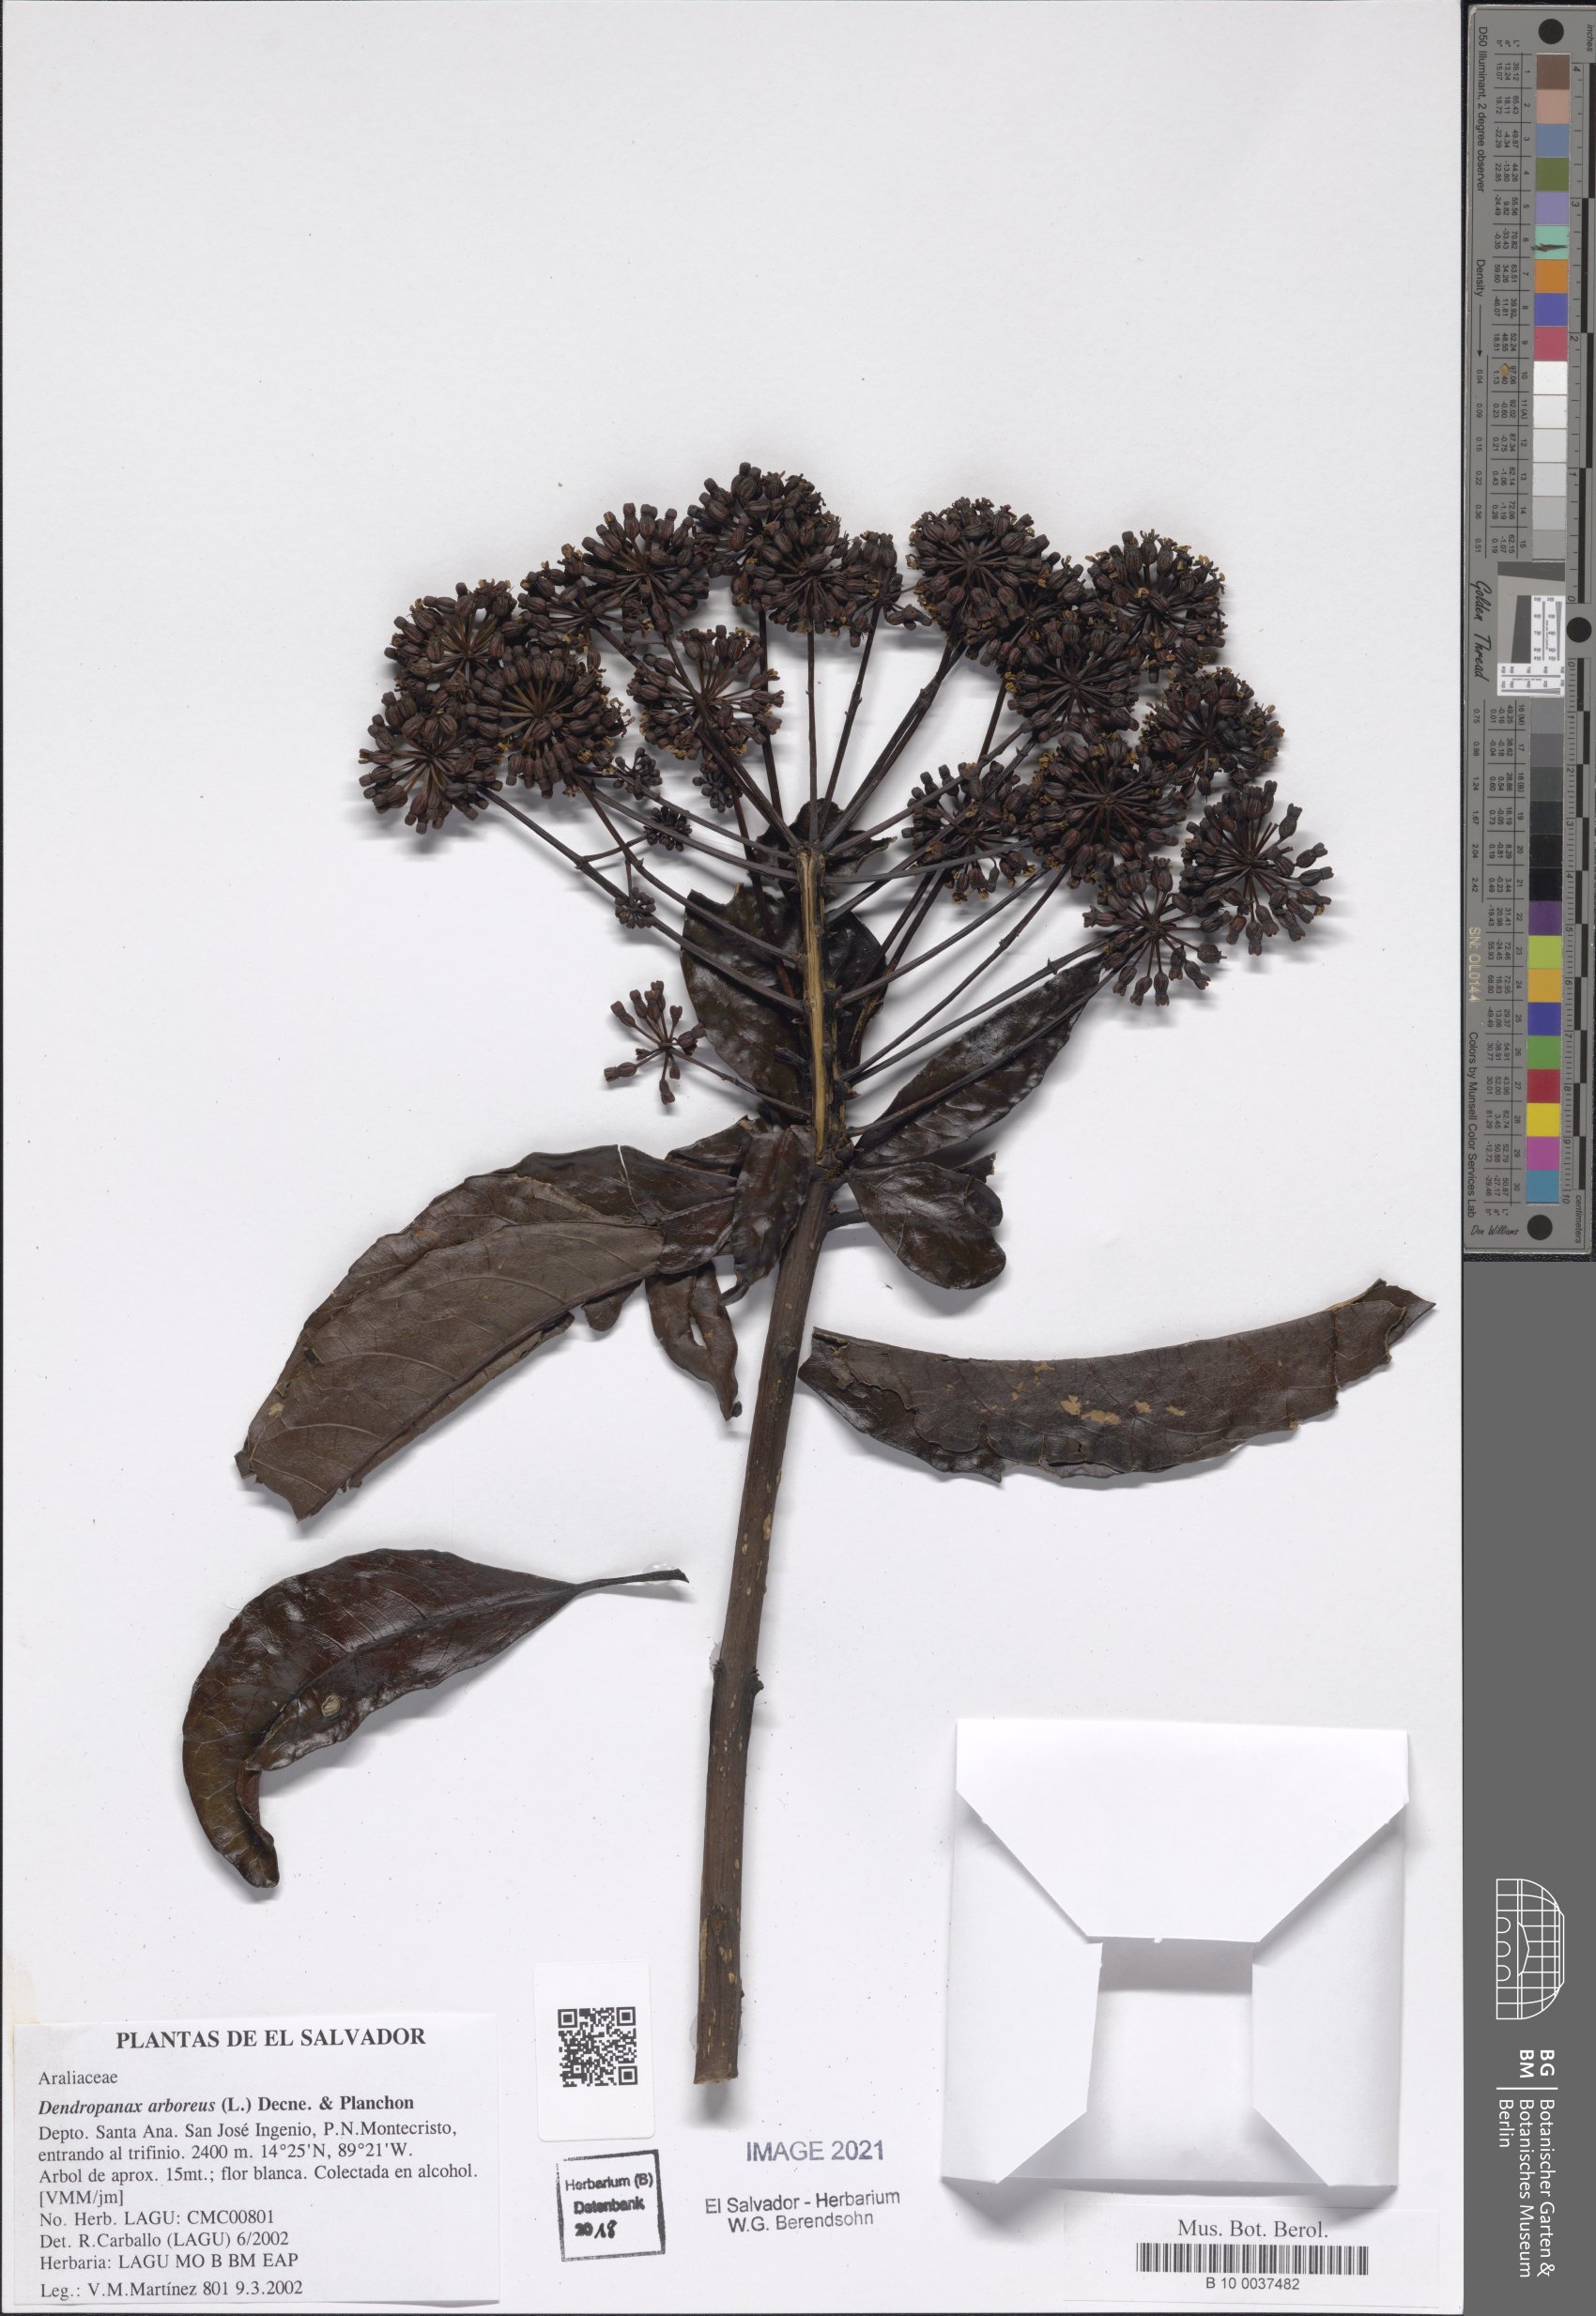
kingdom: Plantae
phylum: Tracheophyta
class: Magnoliopsida
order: Apiales
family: Araliaceae
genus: Dendropanax
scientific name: Dendropanax arboreus
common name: Potato-wood
